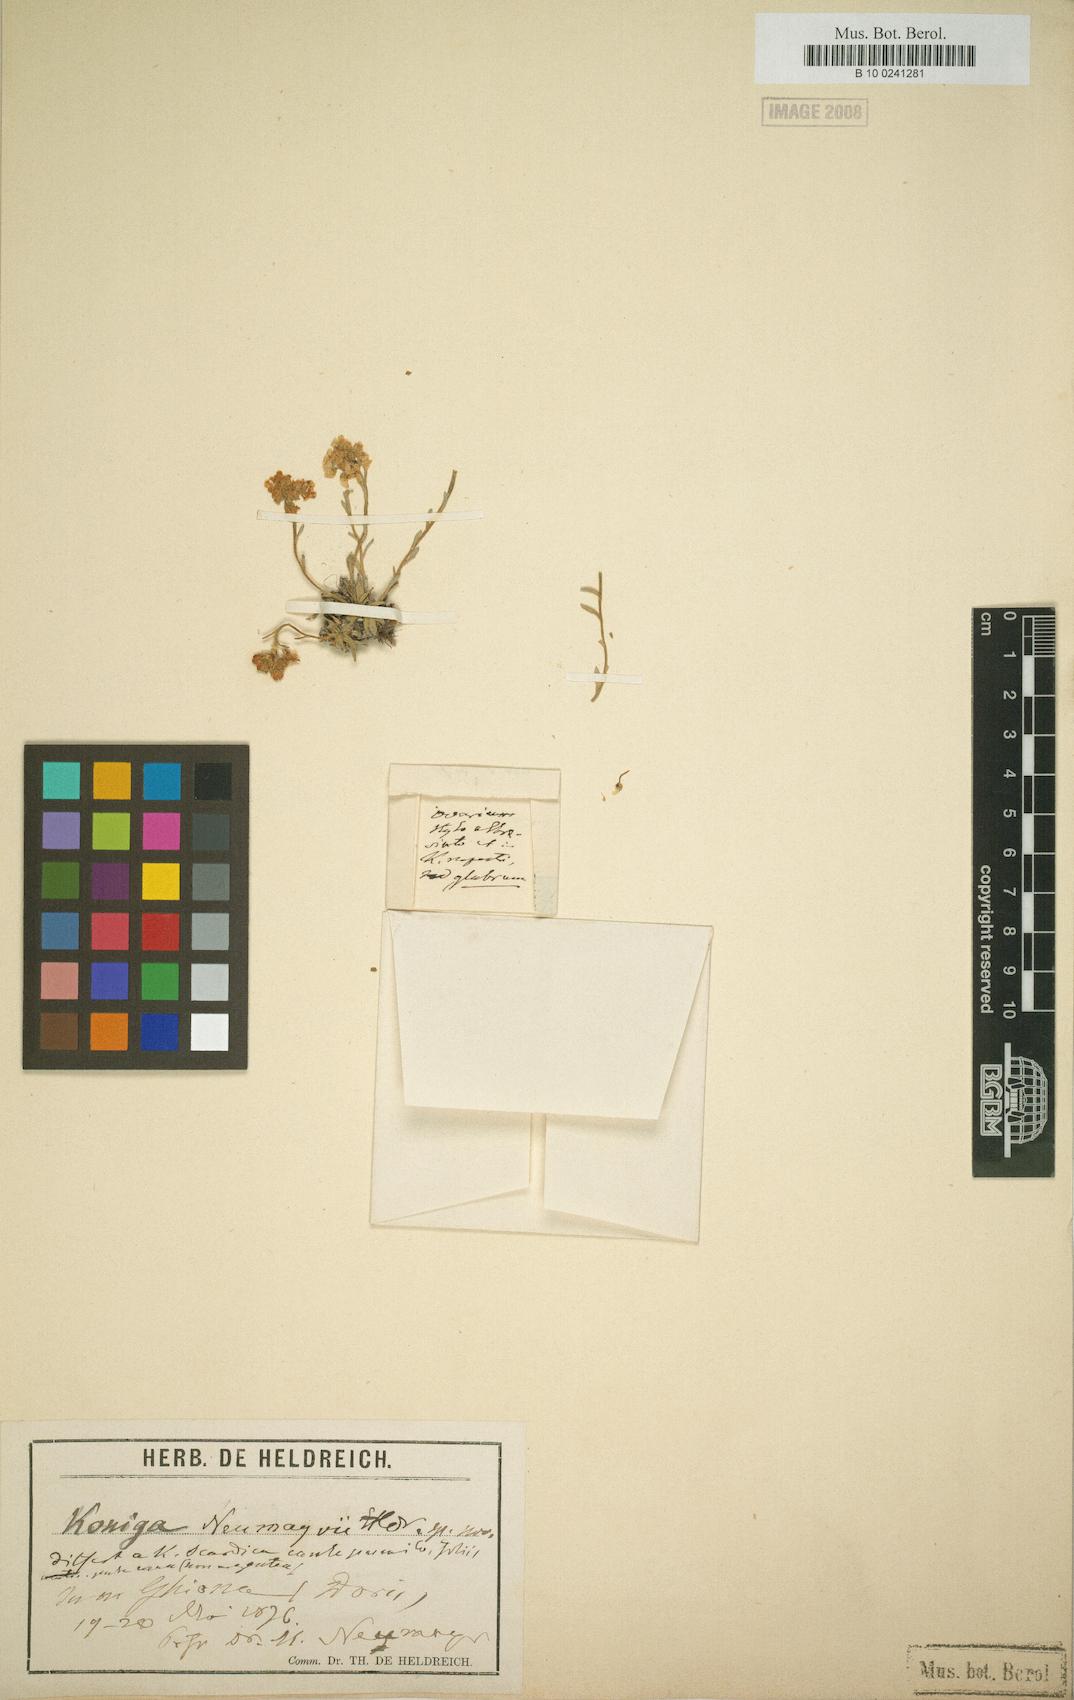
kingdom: Plantae
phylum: Tracheophyta
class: Magnoliopsida
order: Brassicales
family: Brassicaceae
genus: Lobularia
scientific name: Lobularia
